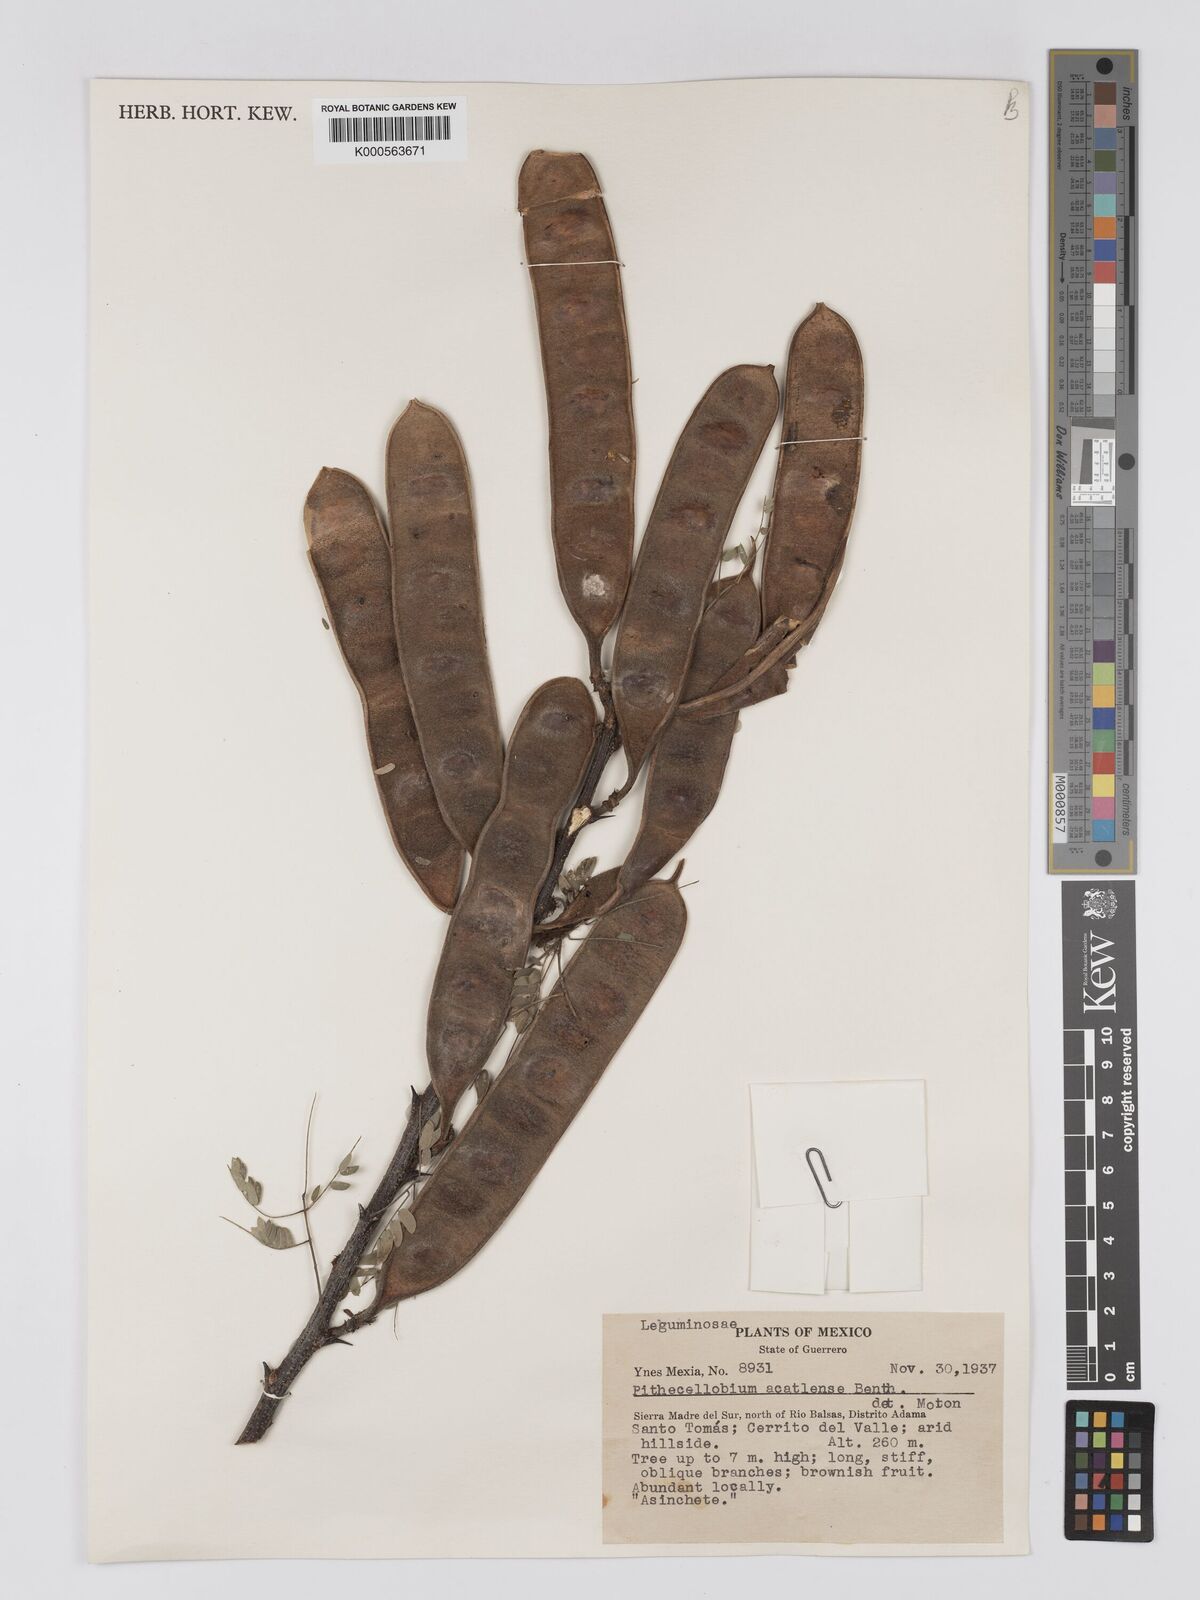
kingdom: Plantae
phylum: Tracheophyta
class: Magnoliopsida
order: Fabales
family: Fabaceae
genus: Havardia
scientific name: Havardia acatlensis
